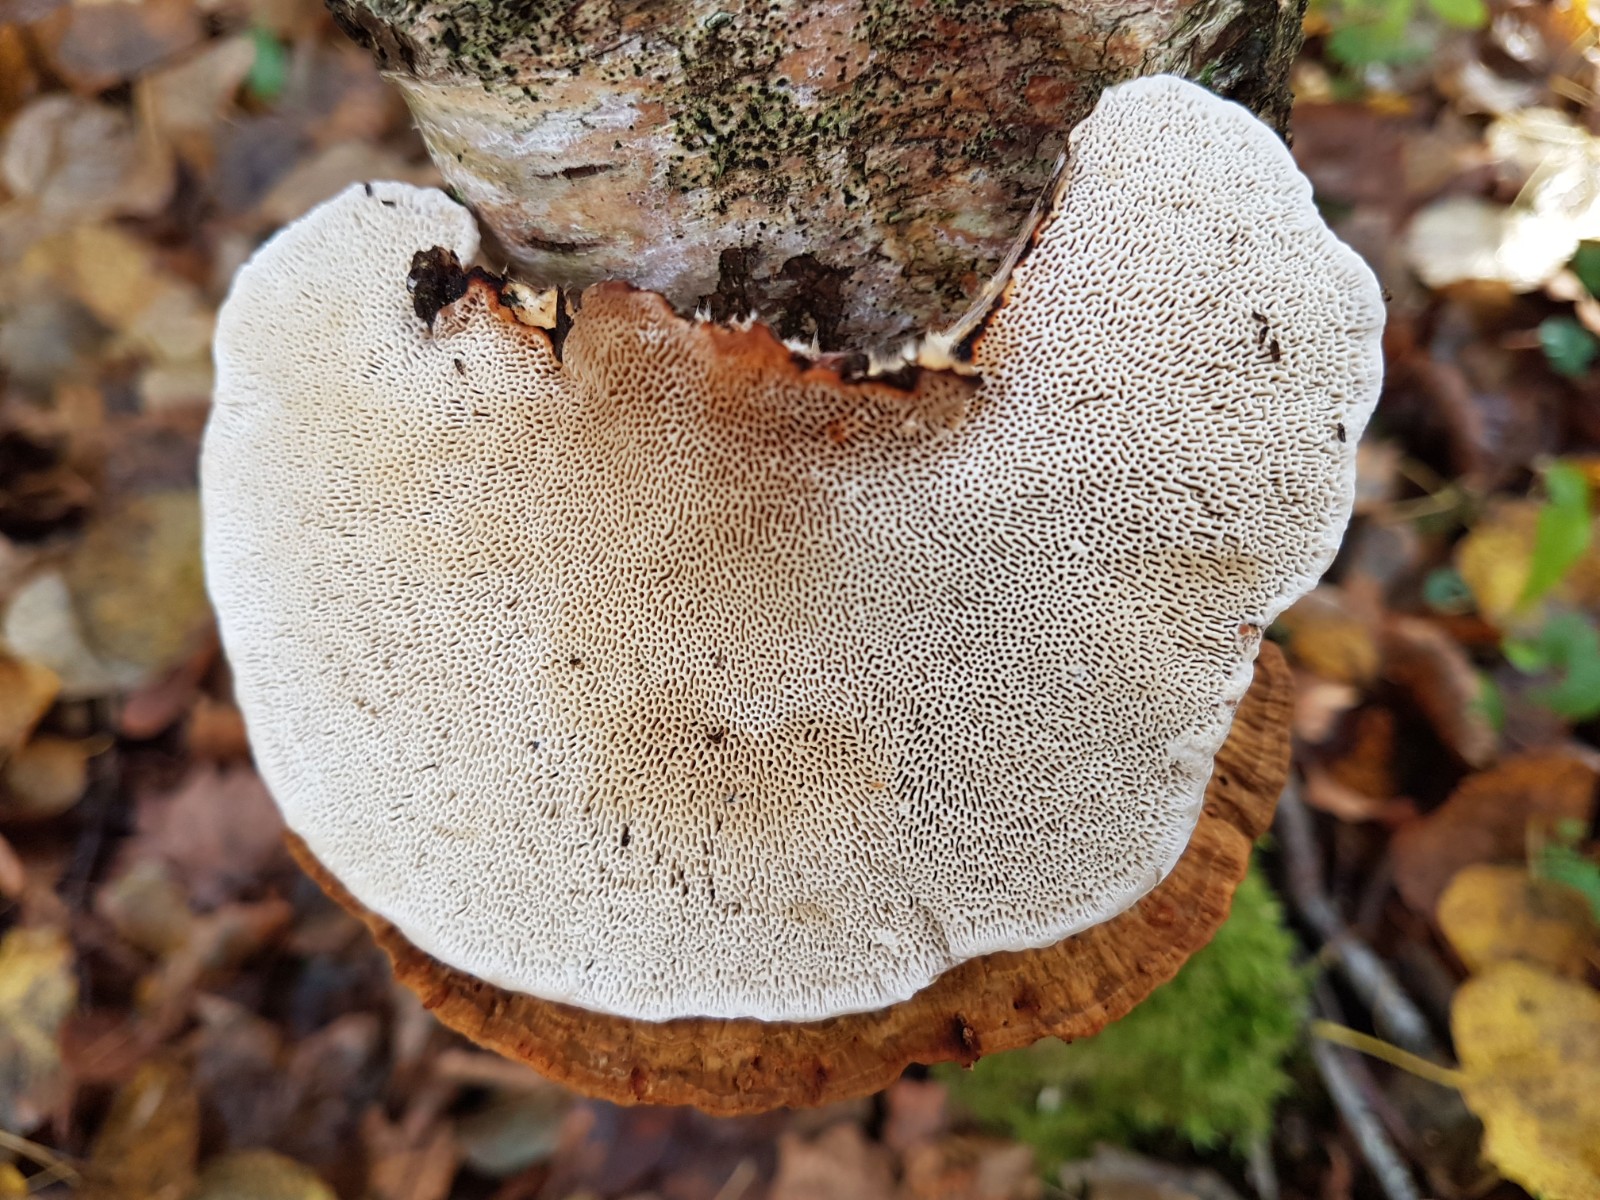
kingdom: Fungi
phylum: Basidiomycota
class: Agaricomycetes
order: Polyporales
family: Polyporaceae
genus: Daedaleopsis
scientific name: Daedaleopsis confragosa
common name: rødmende læderporesvamp
